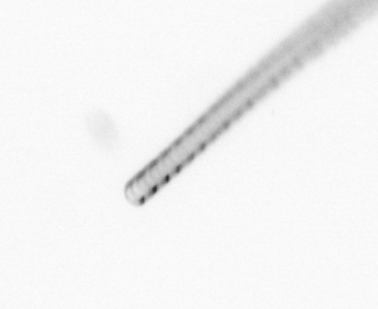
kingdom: Chromista
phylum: Ochrophyta
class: Bacillariophyceae
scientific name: Bacillariophyceae
